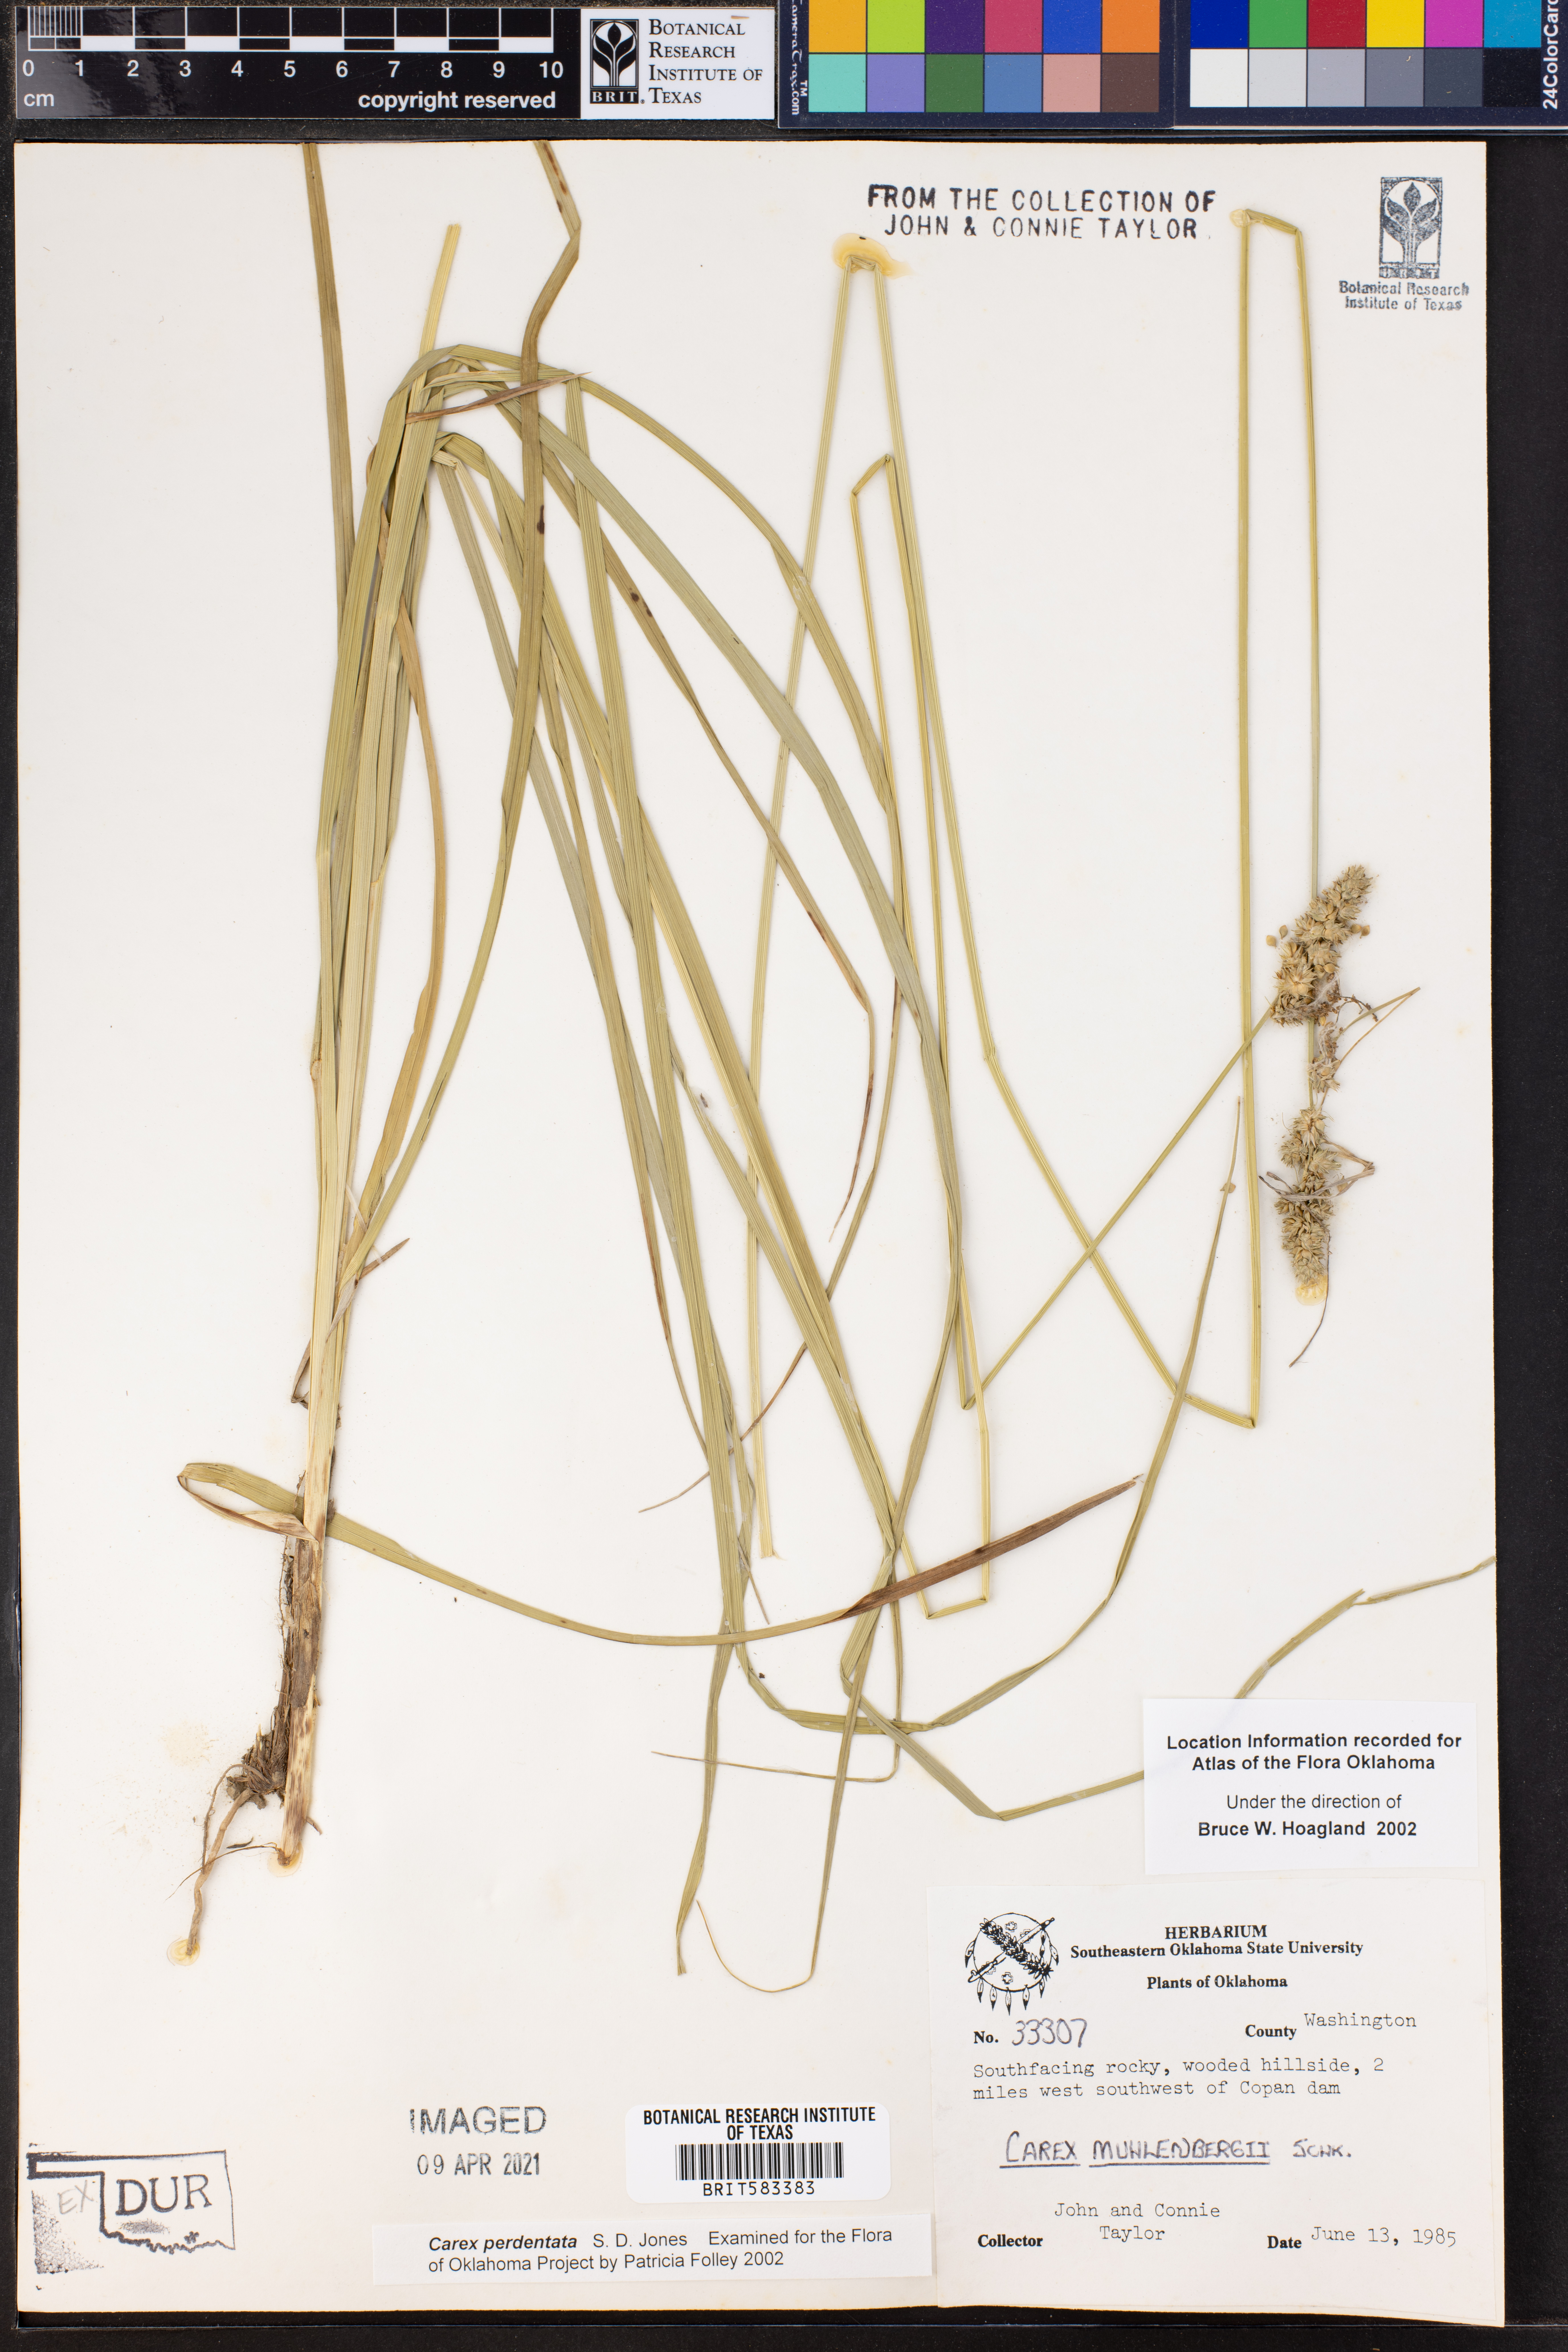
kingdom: Plantae
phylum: Tracheophyta
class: Liliopsida
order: Poales
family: Cyperaceae
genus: Carex
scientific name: Carex perdentata
